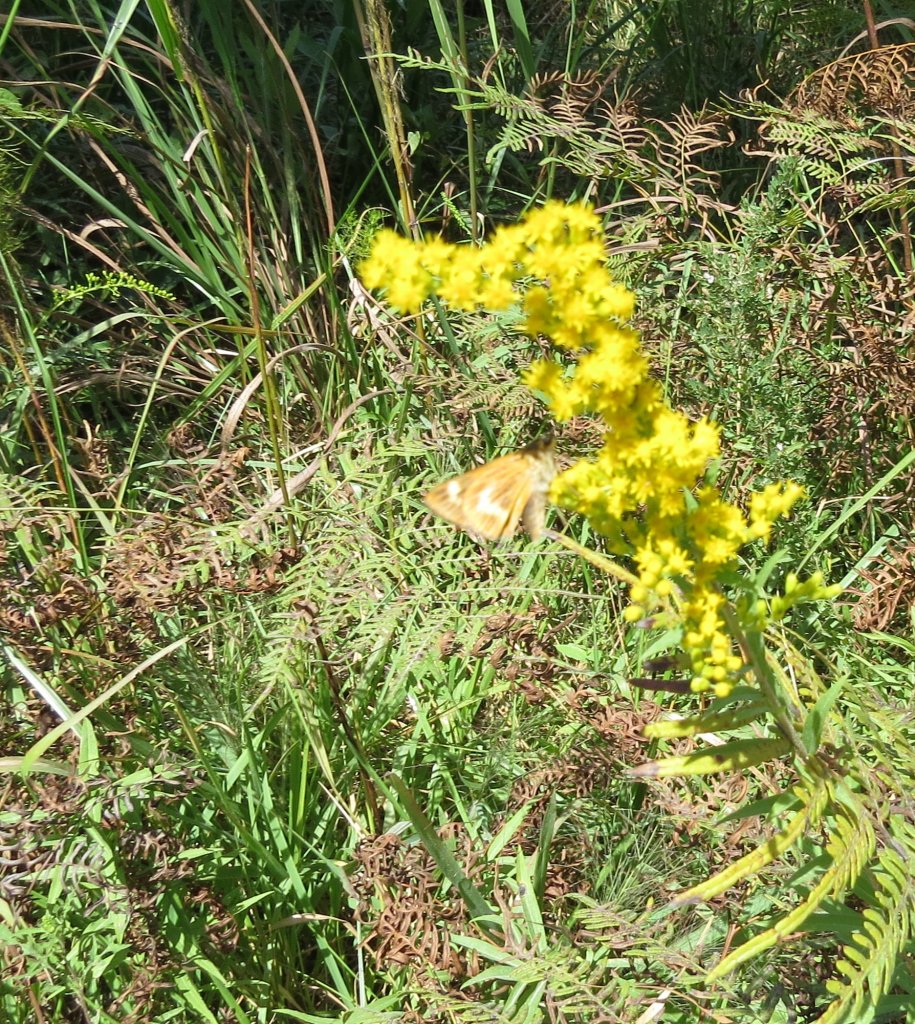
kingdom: Animalia
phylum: Arthropoda
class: Insecta
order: Lepidoptera
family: Hesperiidae
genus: Problema
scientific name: Problema byssus
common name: Byssus Skipper
